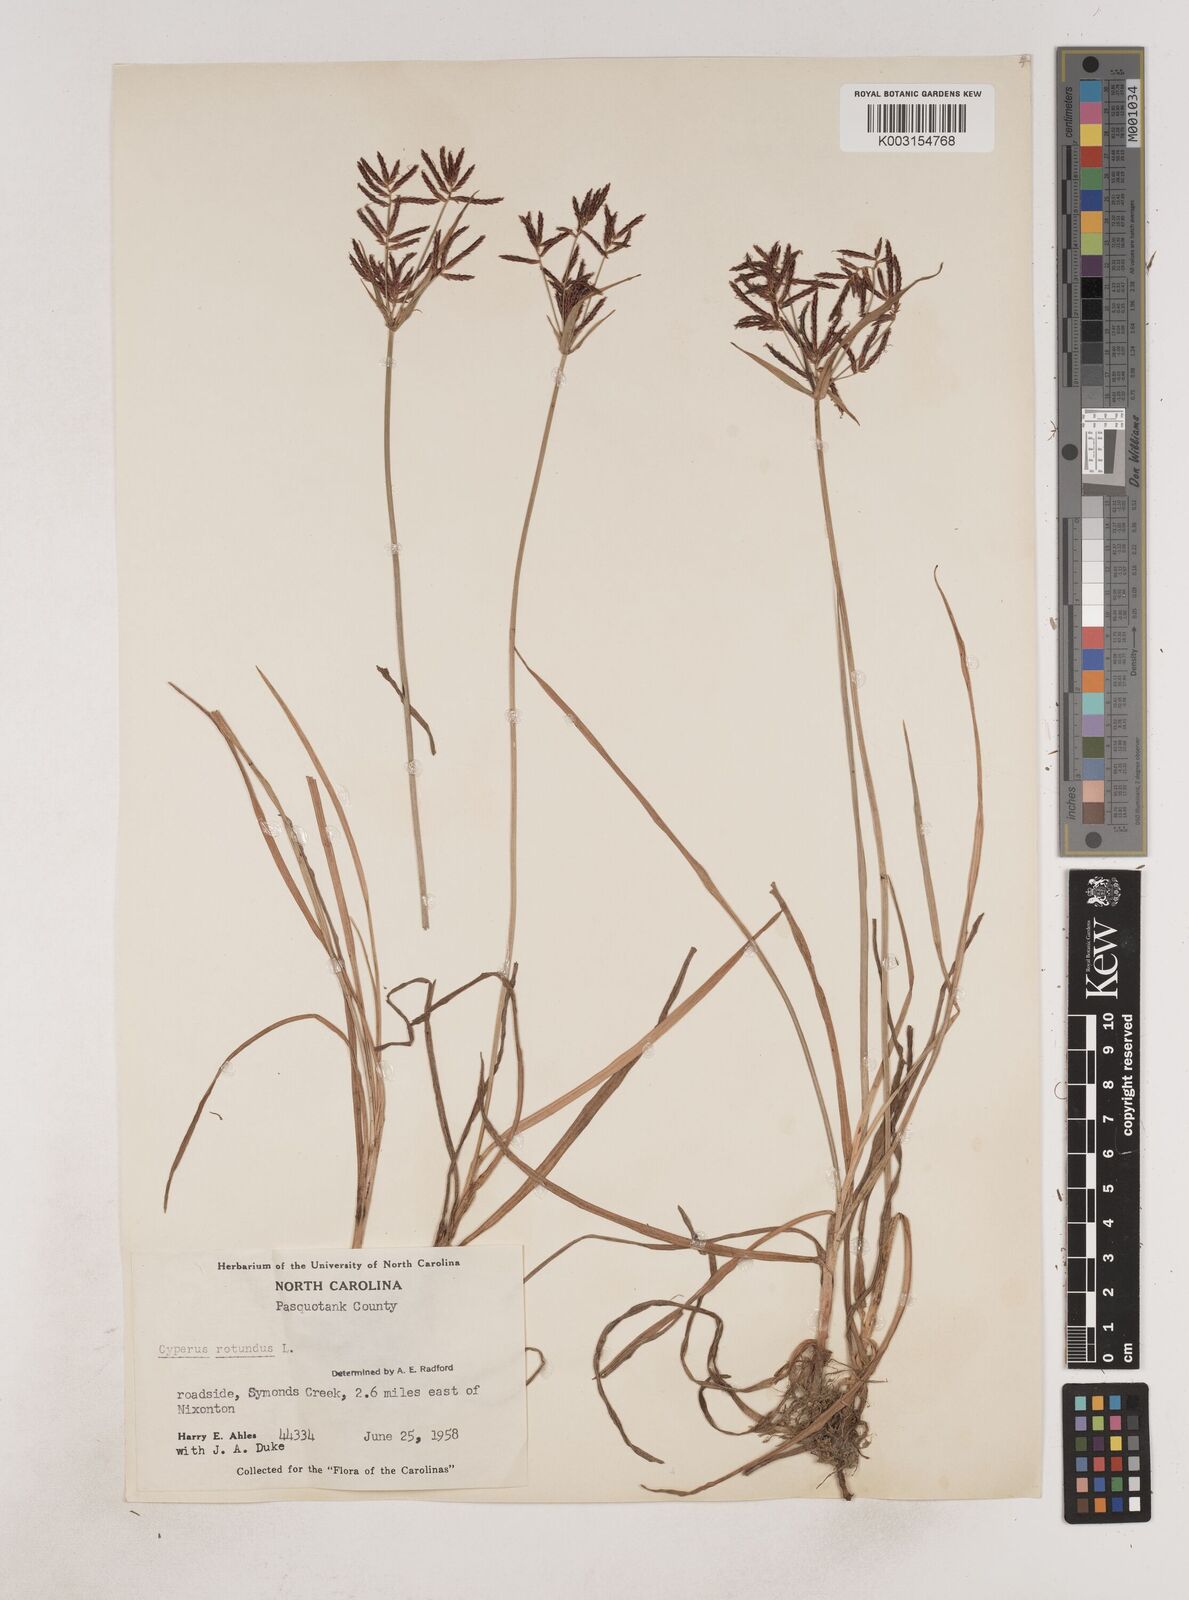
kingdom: Plantae
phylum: Tracheophyta
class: Liliopsida
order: Poales
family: Cyperaceae
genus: Cyperus
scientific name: Cyperus rotundus
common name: Nutgrass
